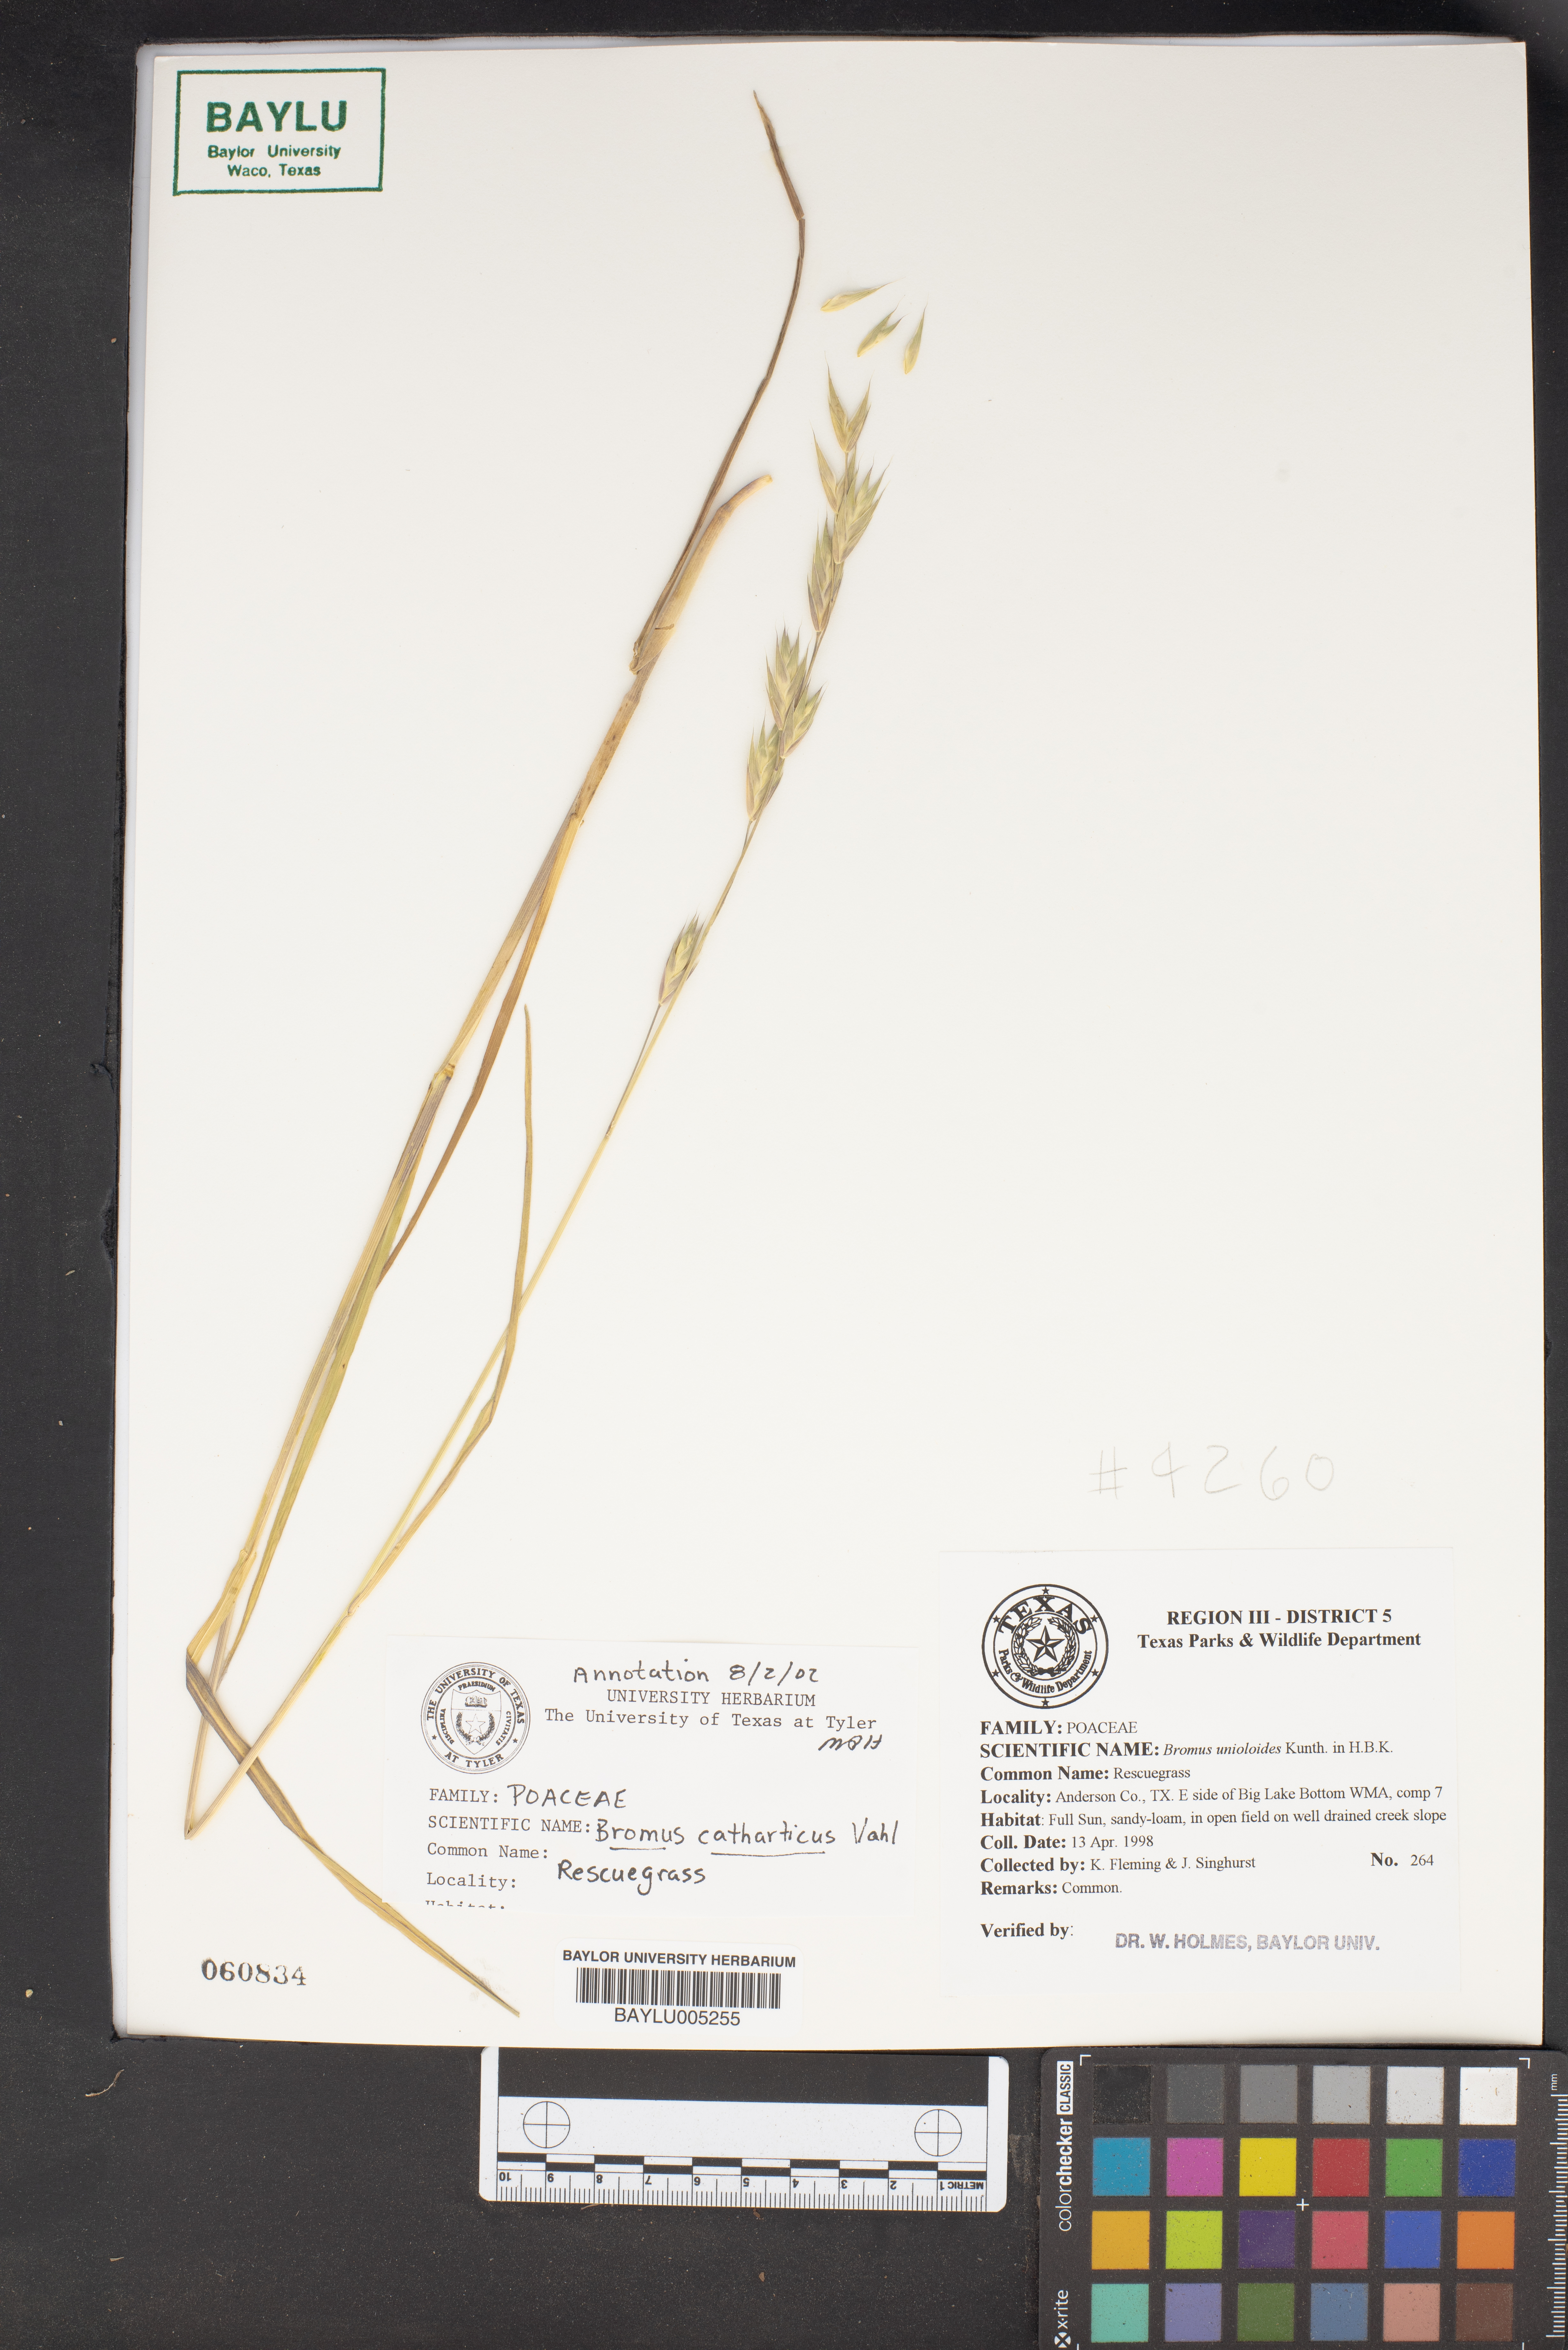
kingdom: Plantae
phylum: Tracheophyta
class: Liliopsida
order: Poales
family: Poaceae
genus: Bromus
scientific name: Bromus catharticus
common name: Rescuegrass
